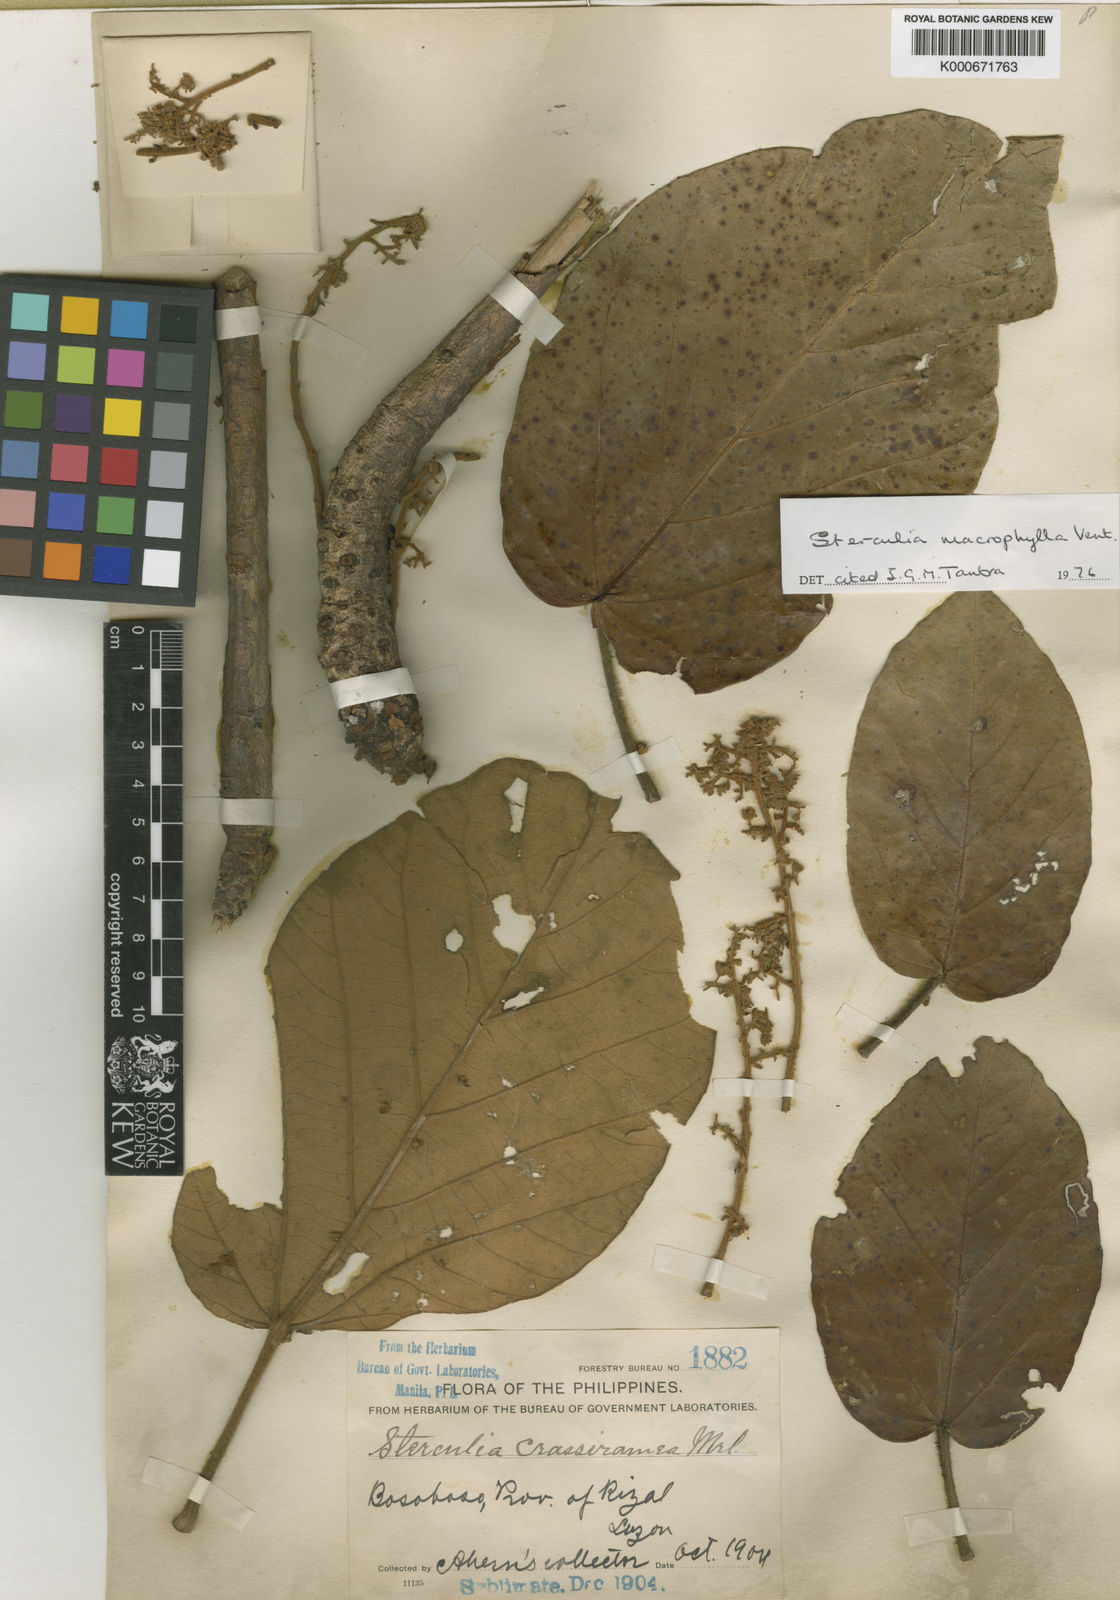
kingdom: Plantae
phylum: Tracheophyta
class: Magnoliopsida
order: Malvales
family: Malvaceae
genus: Sterculia
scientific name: Sterculia macrophylla
